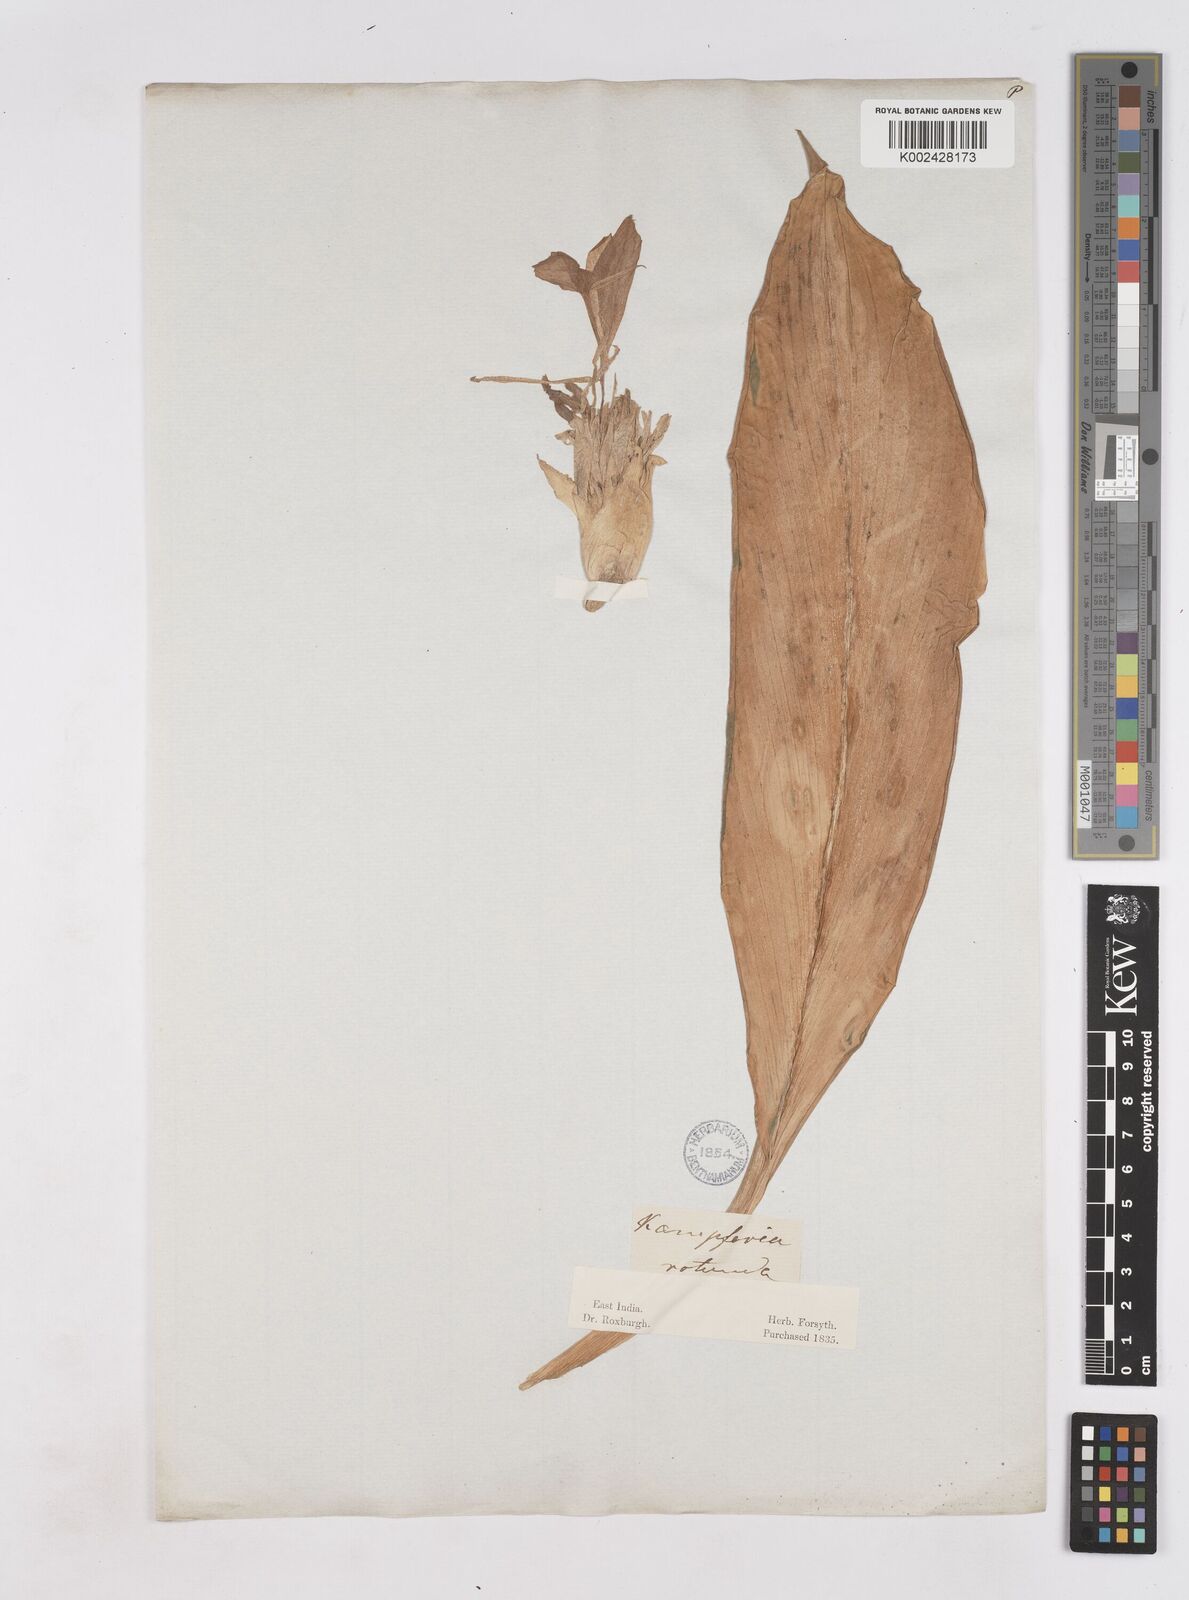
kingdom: Plantae
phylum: Tracheophyta
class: Liliopsida
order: Zingiberales
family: Zingiberaceae
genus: Kaempferia
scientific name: Kaempferia rotunda
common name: Tropical-crocus
